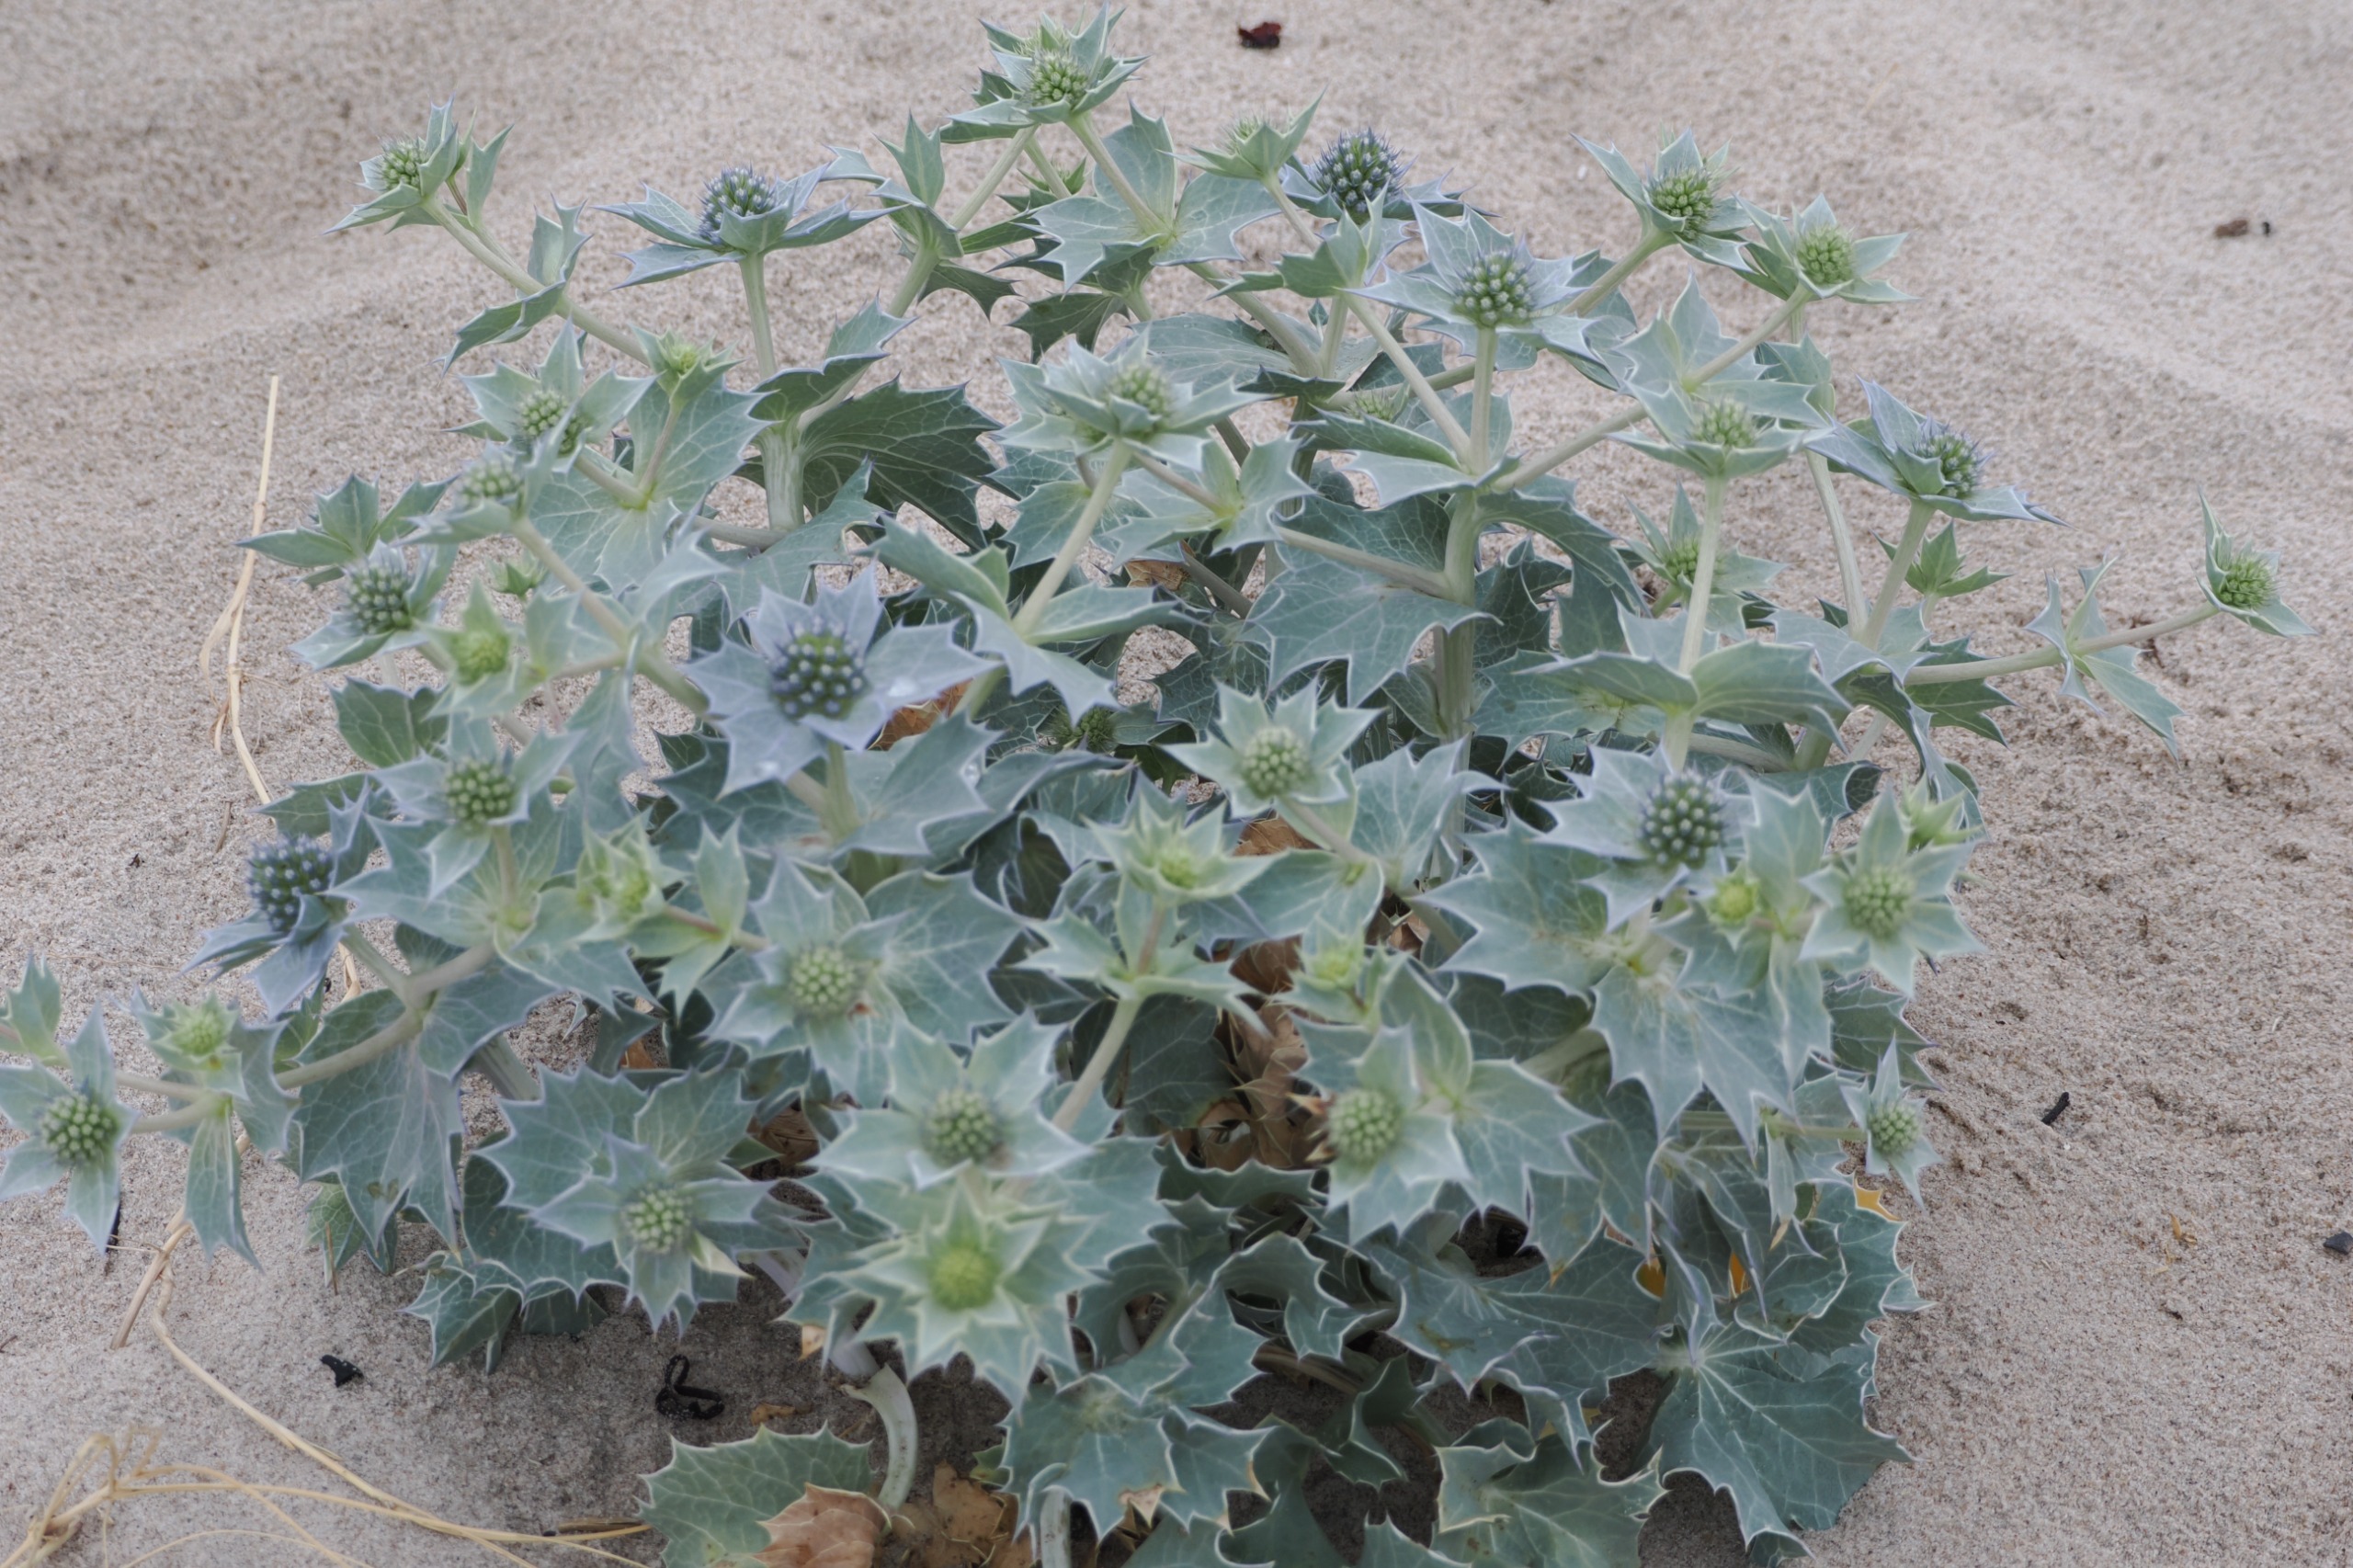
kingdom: Plantae
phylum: Tracheophyta
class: Magnoliopsida
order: Apiales
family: Apiaceae
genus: Eryngium
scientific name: Eryngium maritimum
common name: Strand-mandstro
